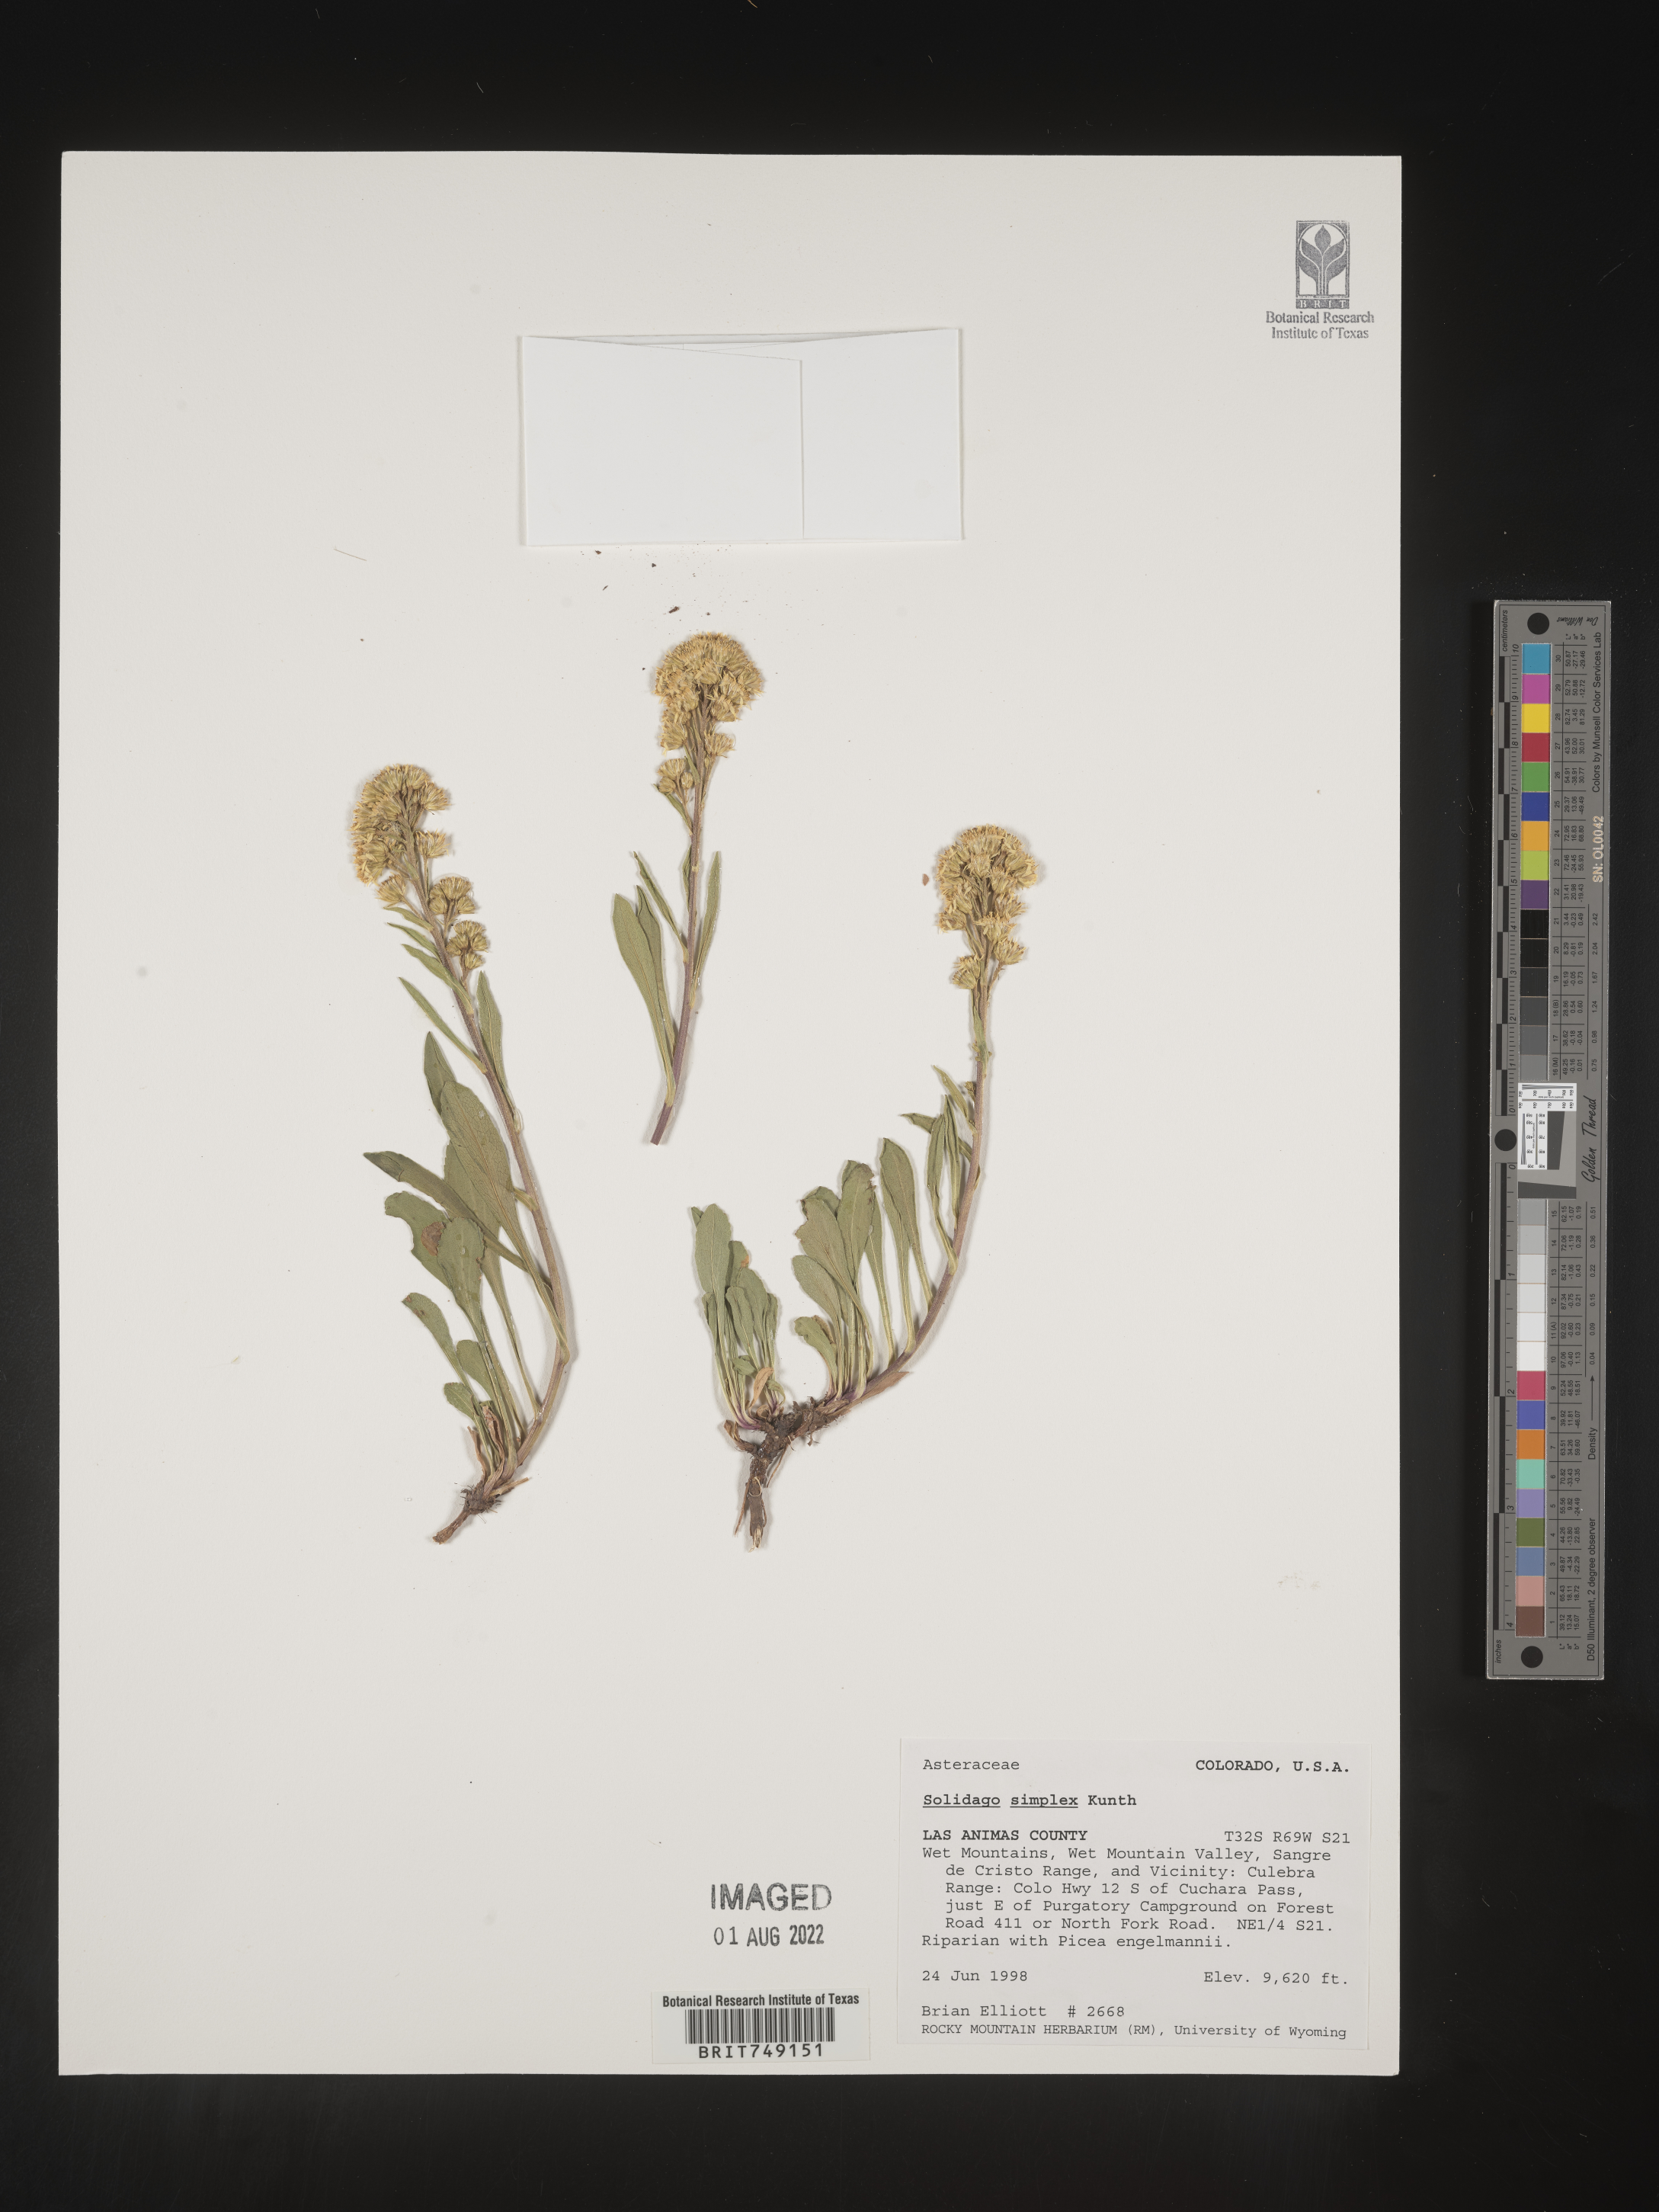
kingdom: Plantae
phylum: Tracheophyta
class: Magnoliopsida
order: Asterales
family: Asteraceae
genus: Solidago
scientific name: Solidago simplex
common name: Sticky goldenrod
